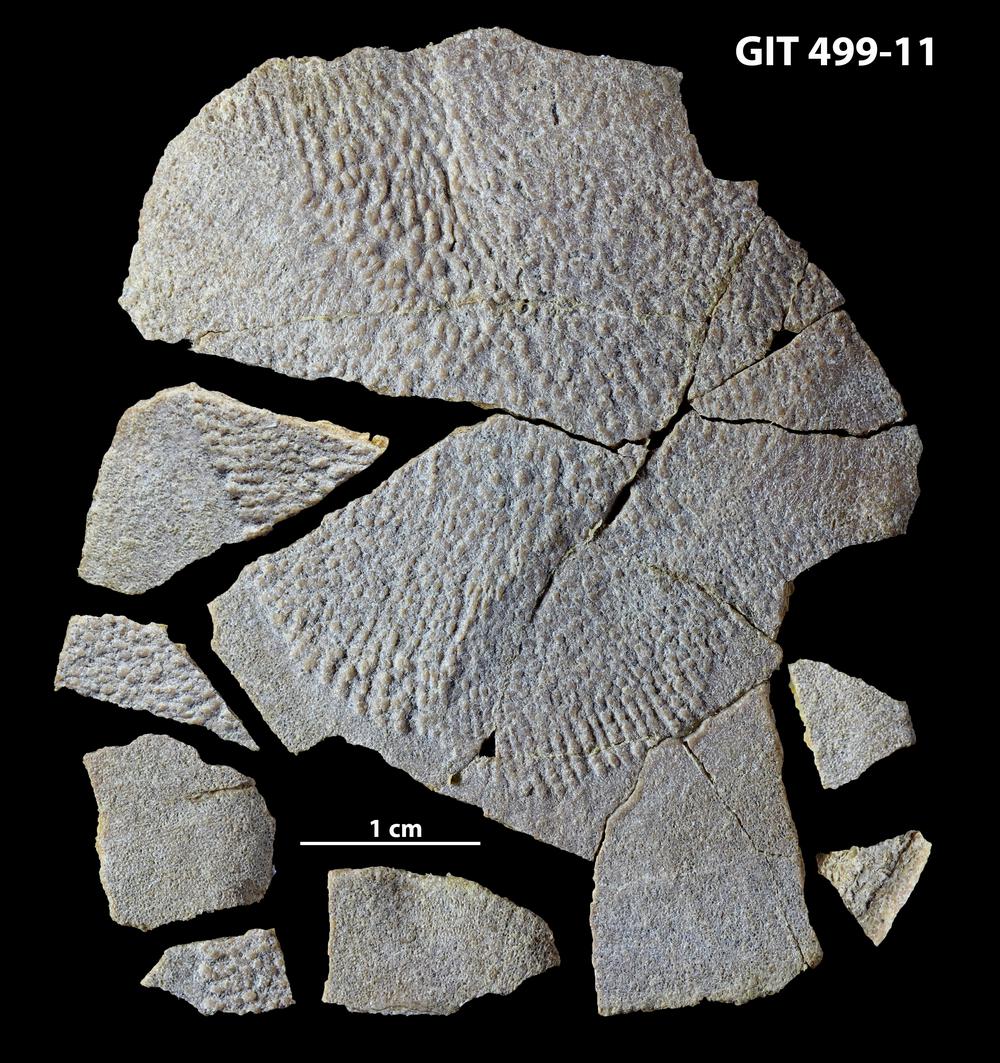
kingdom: Animalia
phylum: Chordata
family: Holoptychiidae
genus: Glyptolepis
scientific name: Glyptolepis
